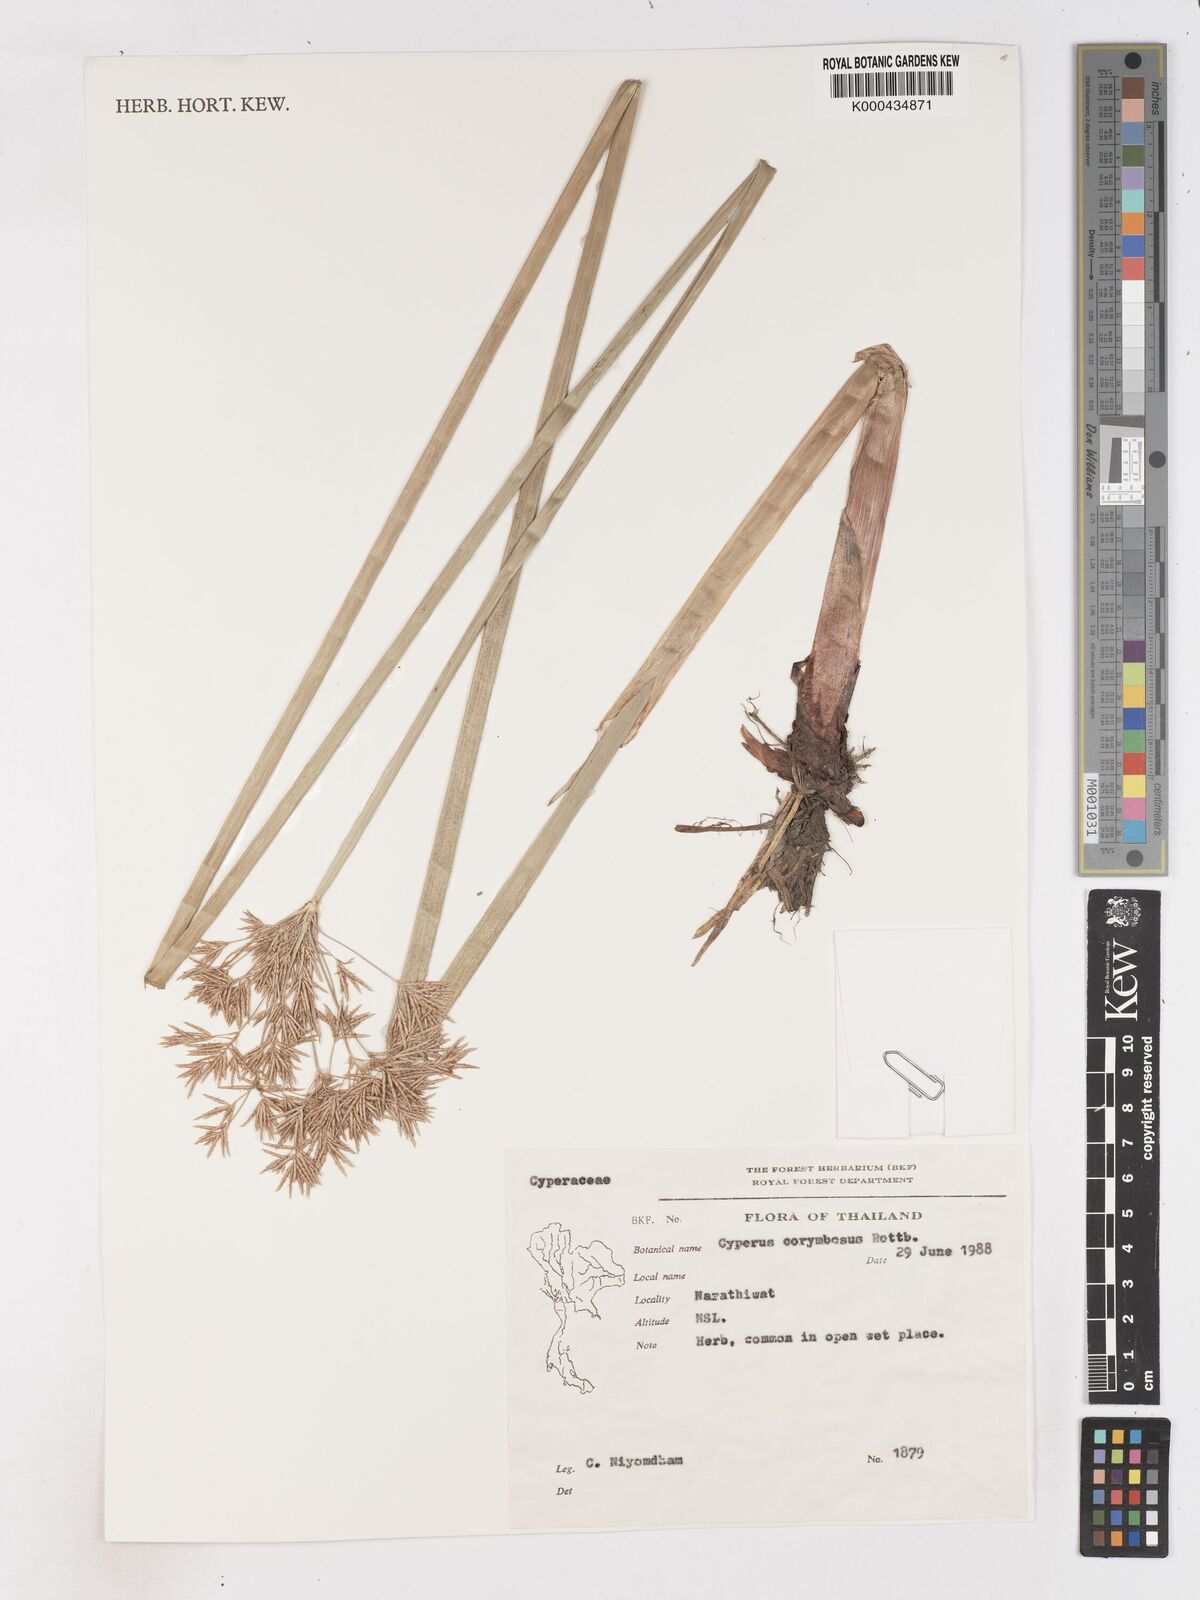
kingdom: Plantae
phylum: Tracheophyta
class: Liliopsida
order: Poales
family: Cyperaceae
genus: Cyperus
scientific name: Cyperus corymbosus
